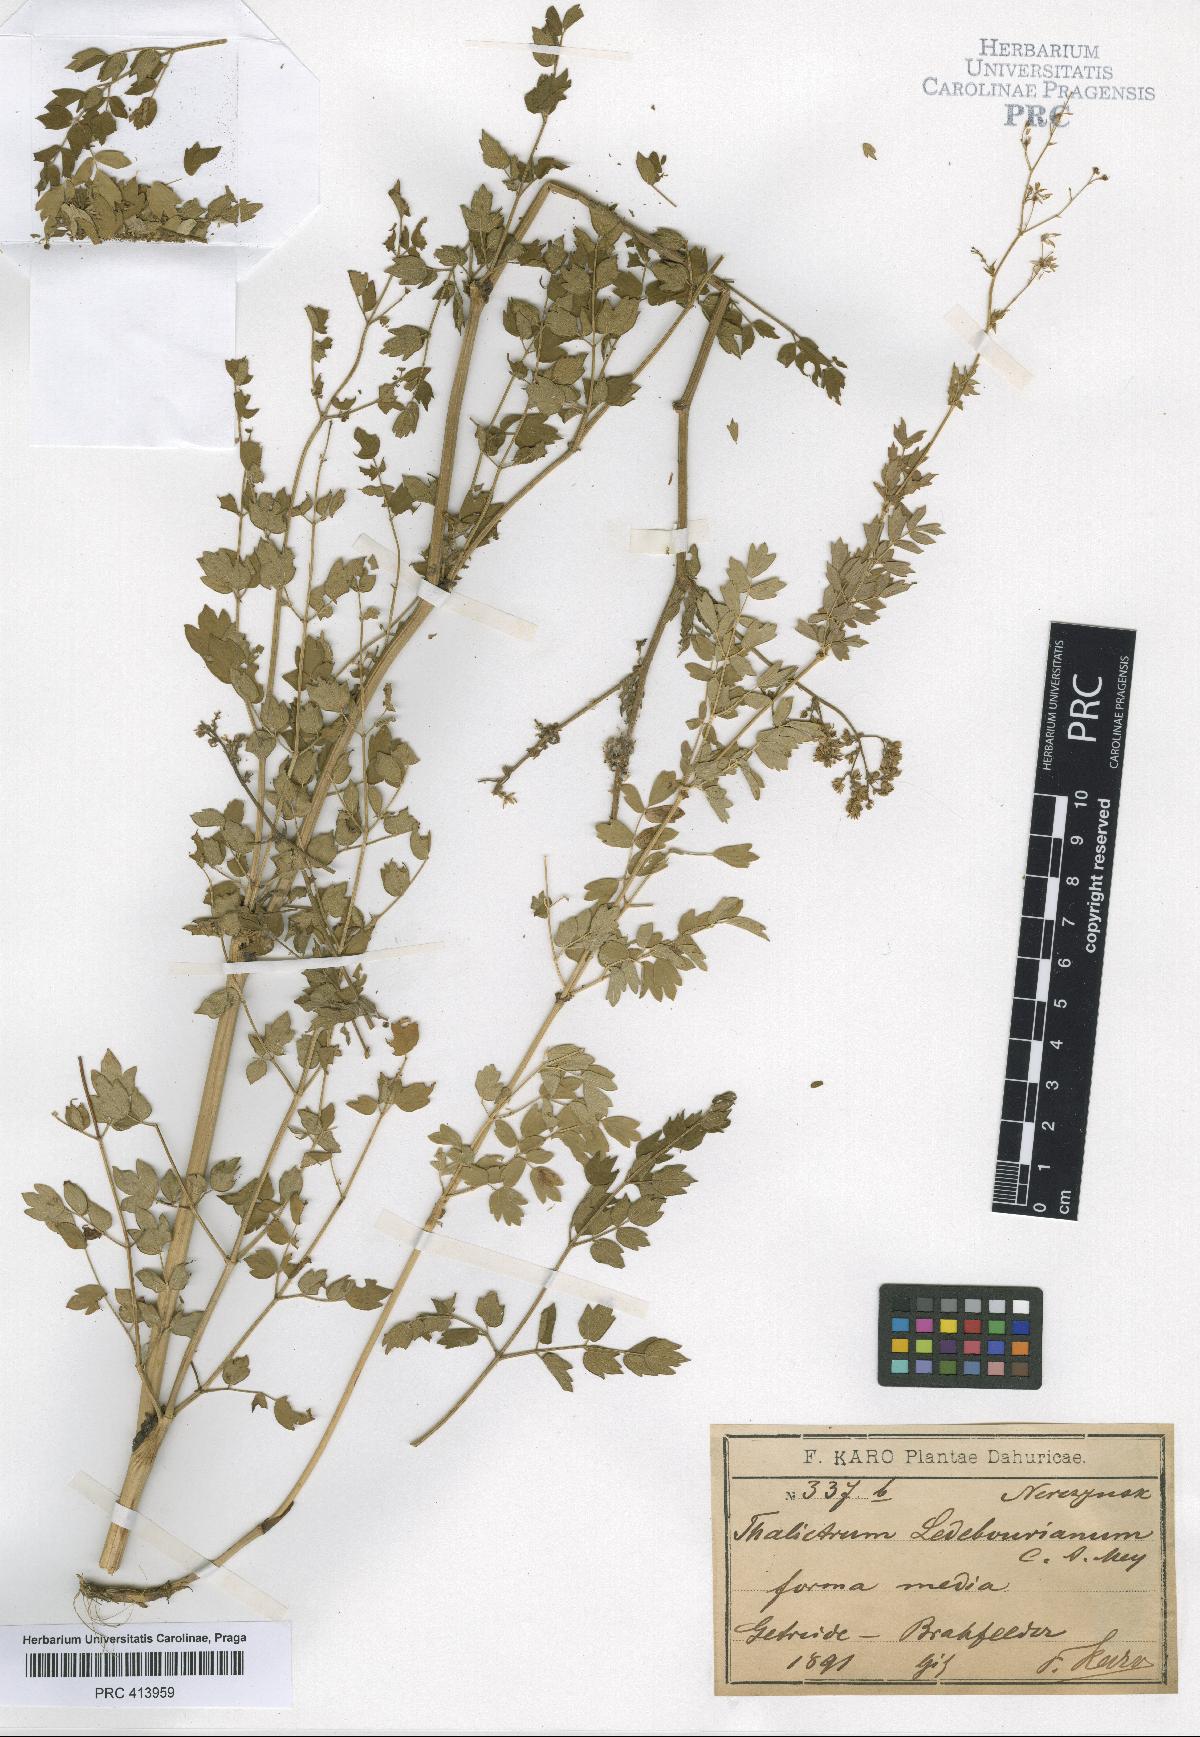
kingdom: Plantae
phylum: Tracheophyta
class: Magnoliopsida
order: Ranunculales
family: Ranunculaceae
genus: Thalictrum
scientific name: Thalictrum squarrosum
